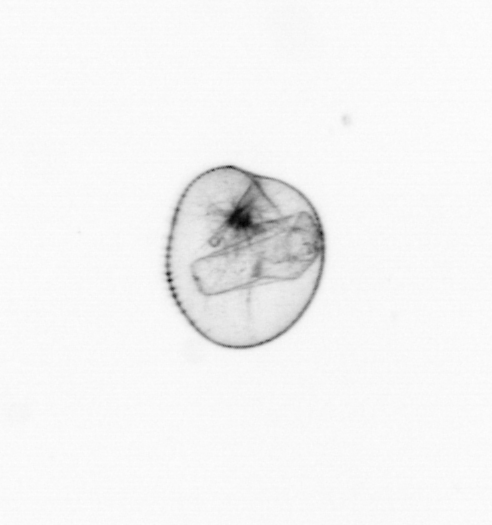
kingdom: Chromista
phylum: Myzozoa
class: Dinophyceae
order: Noctilucales
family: Noctilucaceae
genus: Noctiluca
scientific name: Noctiluca scintillans
